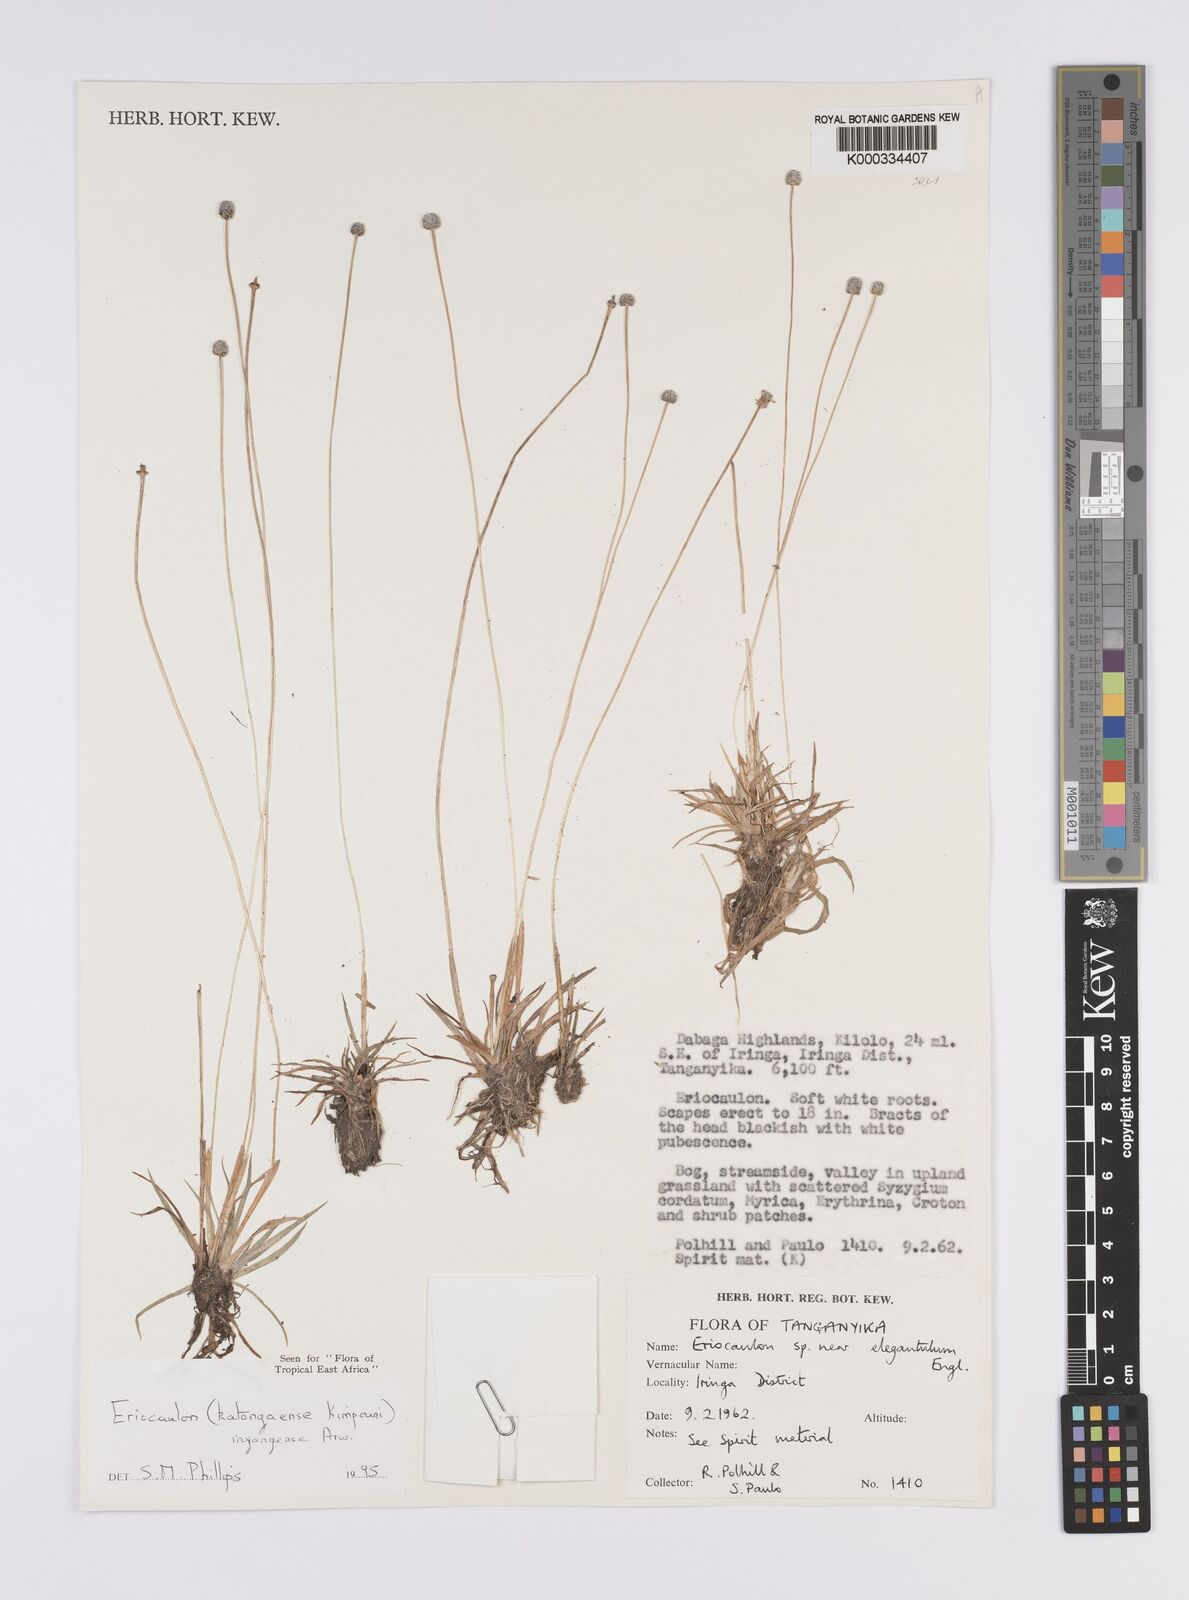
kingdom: Plantae
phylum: Tracheophyta
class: Liliopsida
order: Poales
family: Eriocaulaceae
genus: Eriocaulon
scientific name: Eriocaulon inyangense
